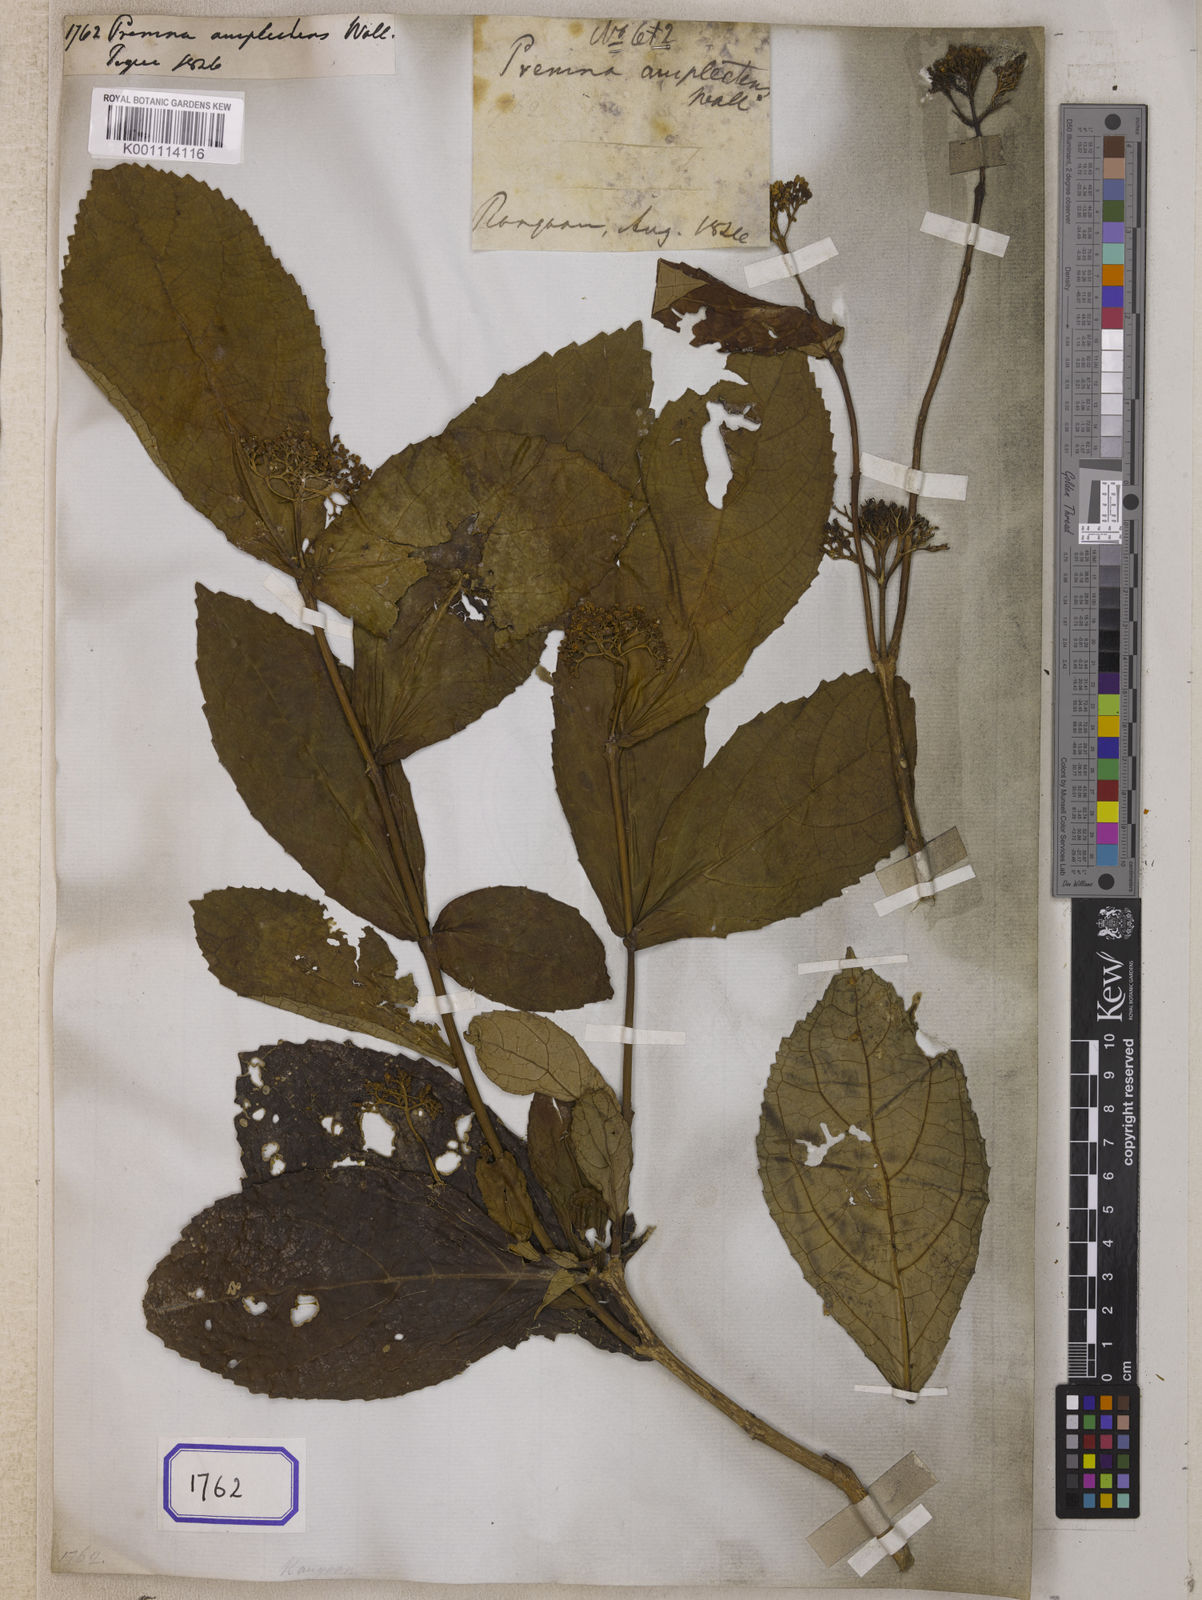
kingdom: Plantae
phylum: Tracheophyta
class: Magnoliopsida
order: Lamiales
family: Lamiaceae
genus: Premna
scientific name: Premna
